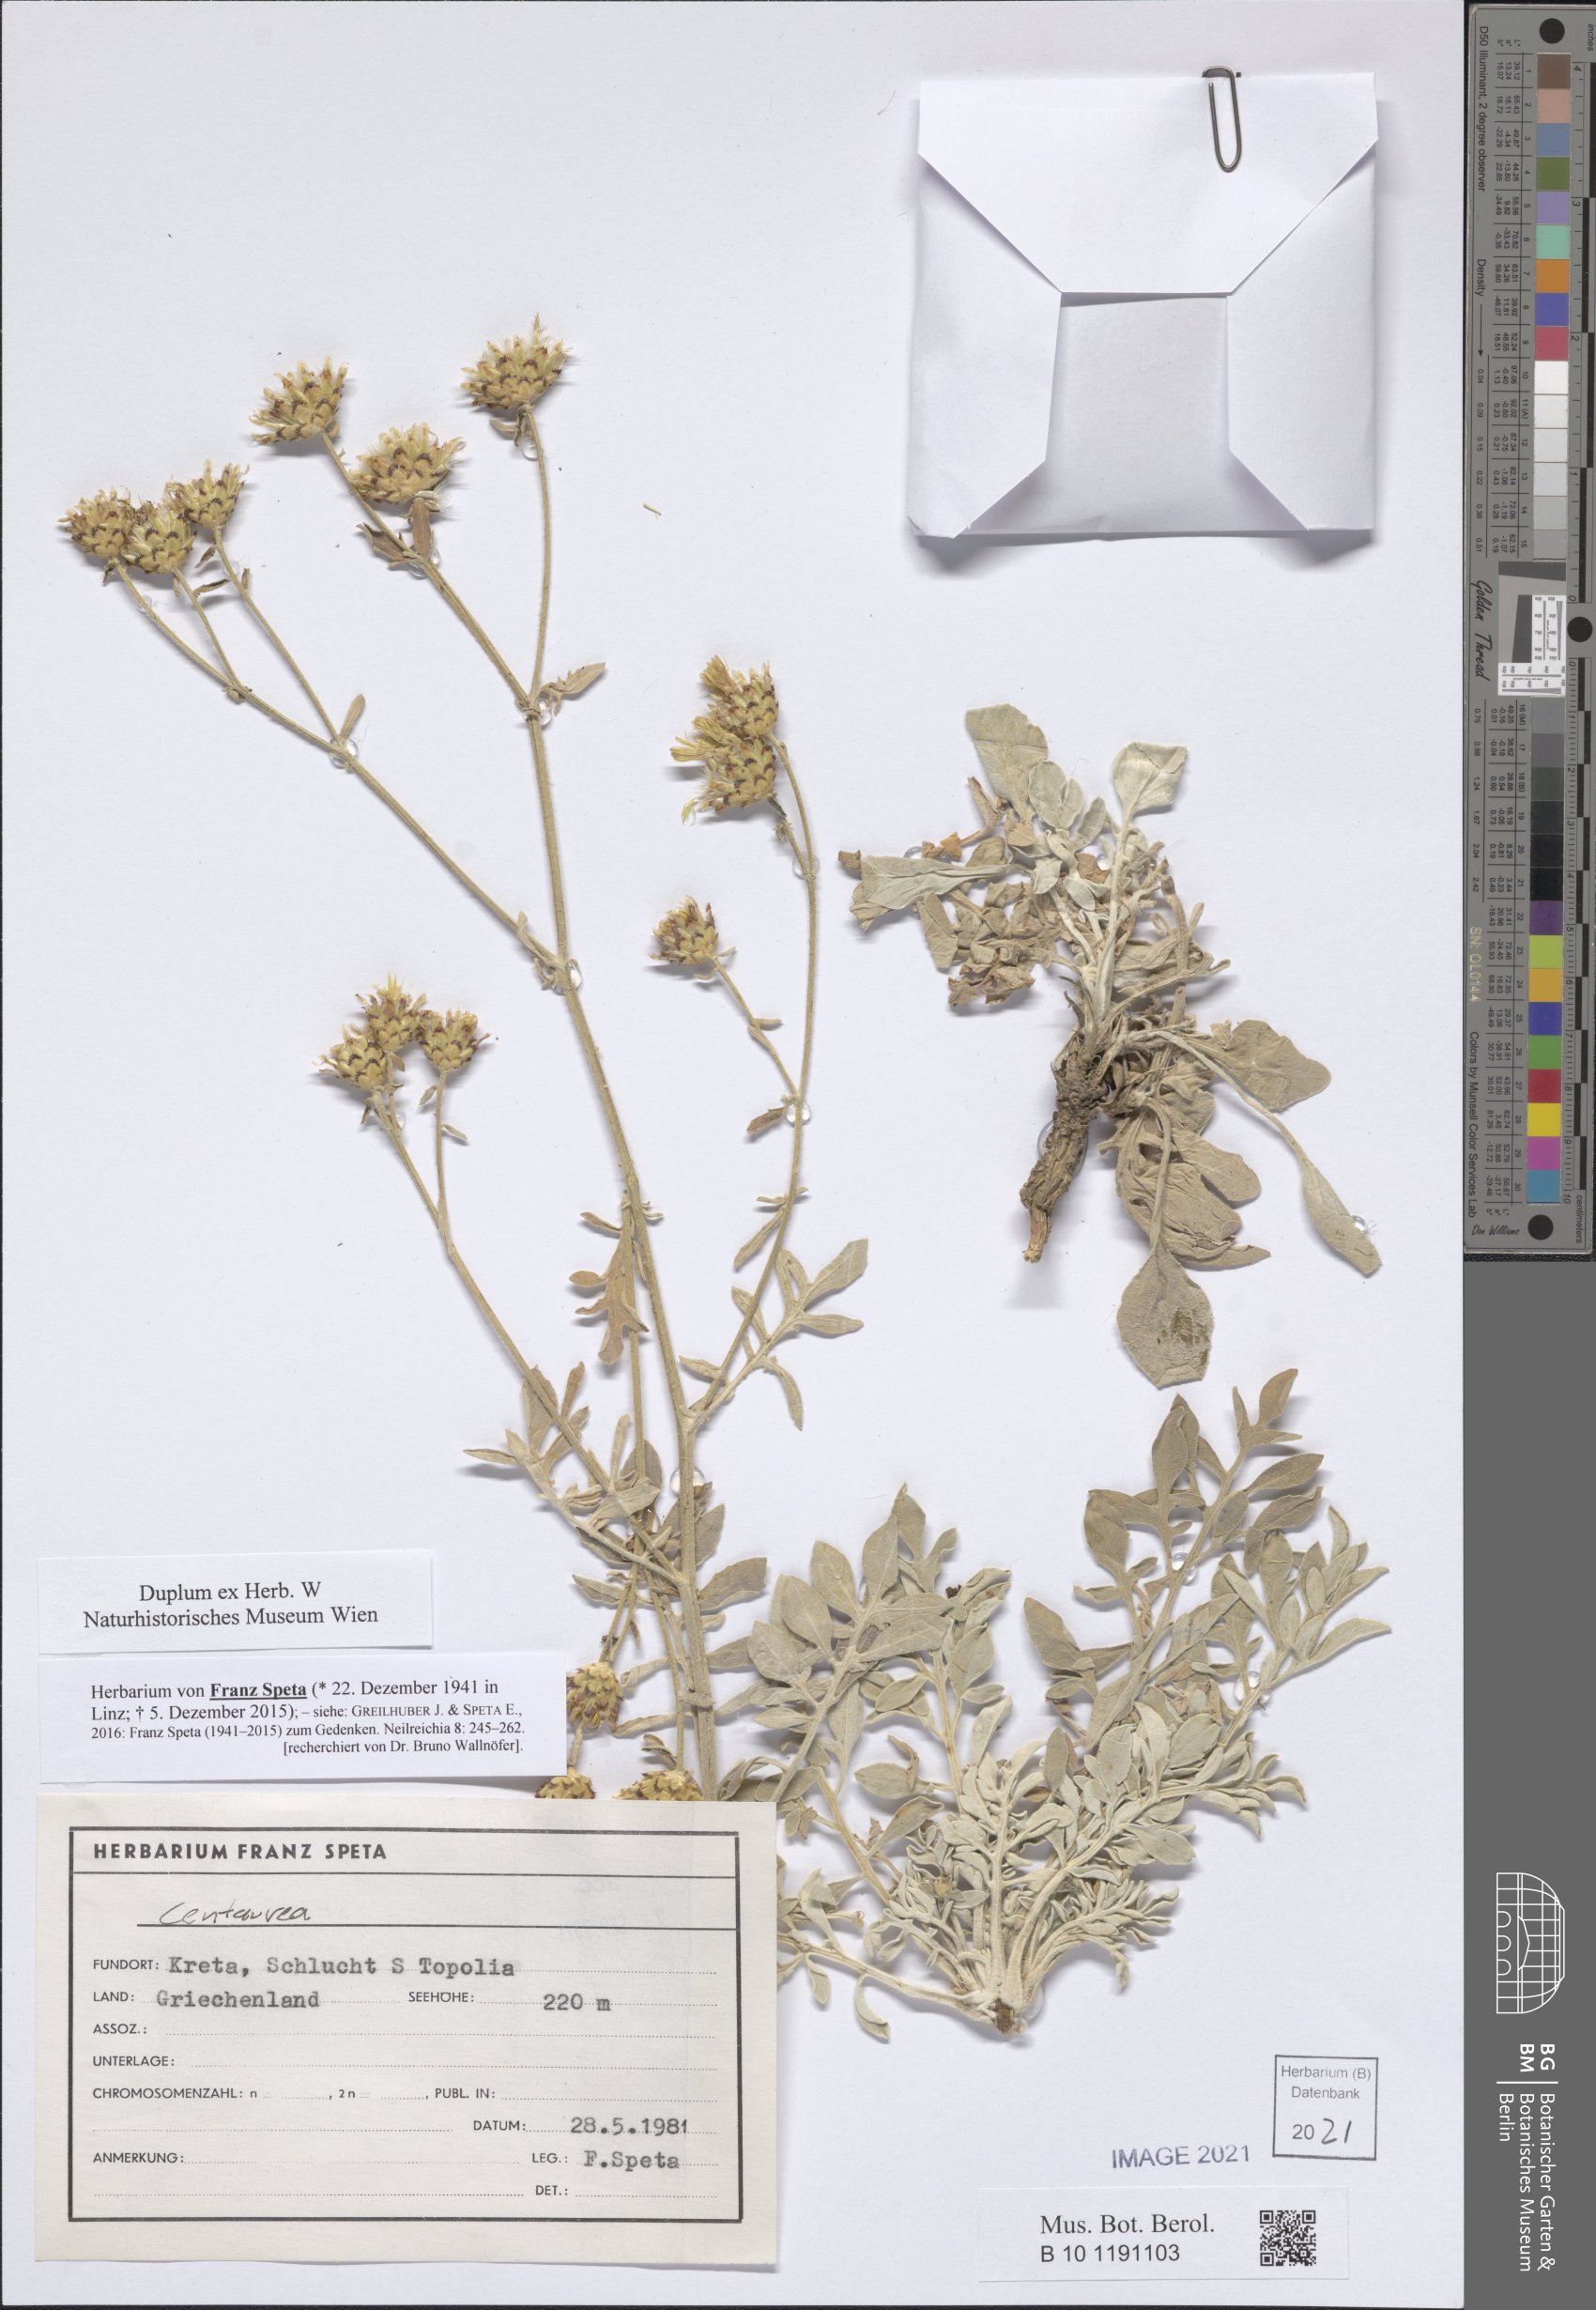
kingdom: Plantae
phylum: Tracheophyta
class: Magnoliopsida
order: Asterales
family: Asteraceae
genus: Centaurea
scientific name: Centaurea
